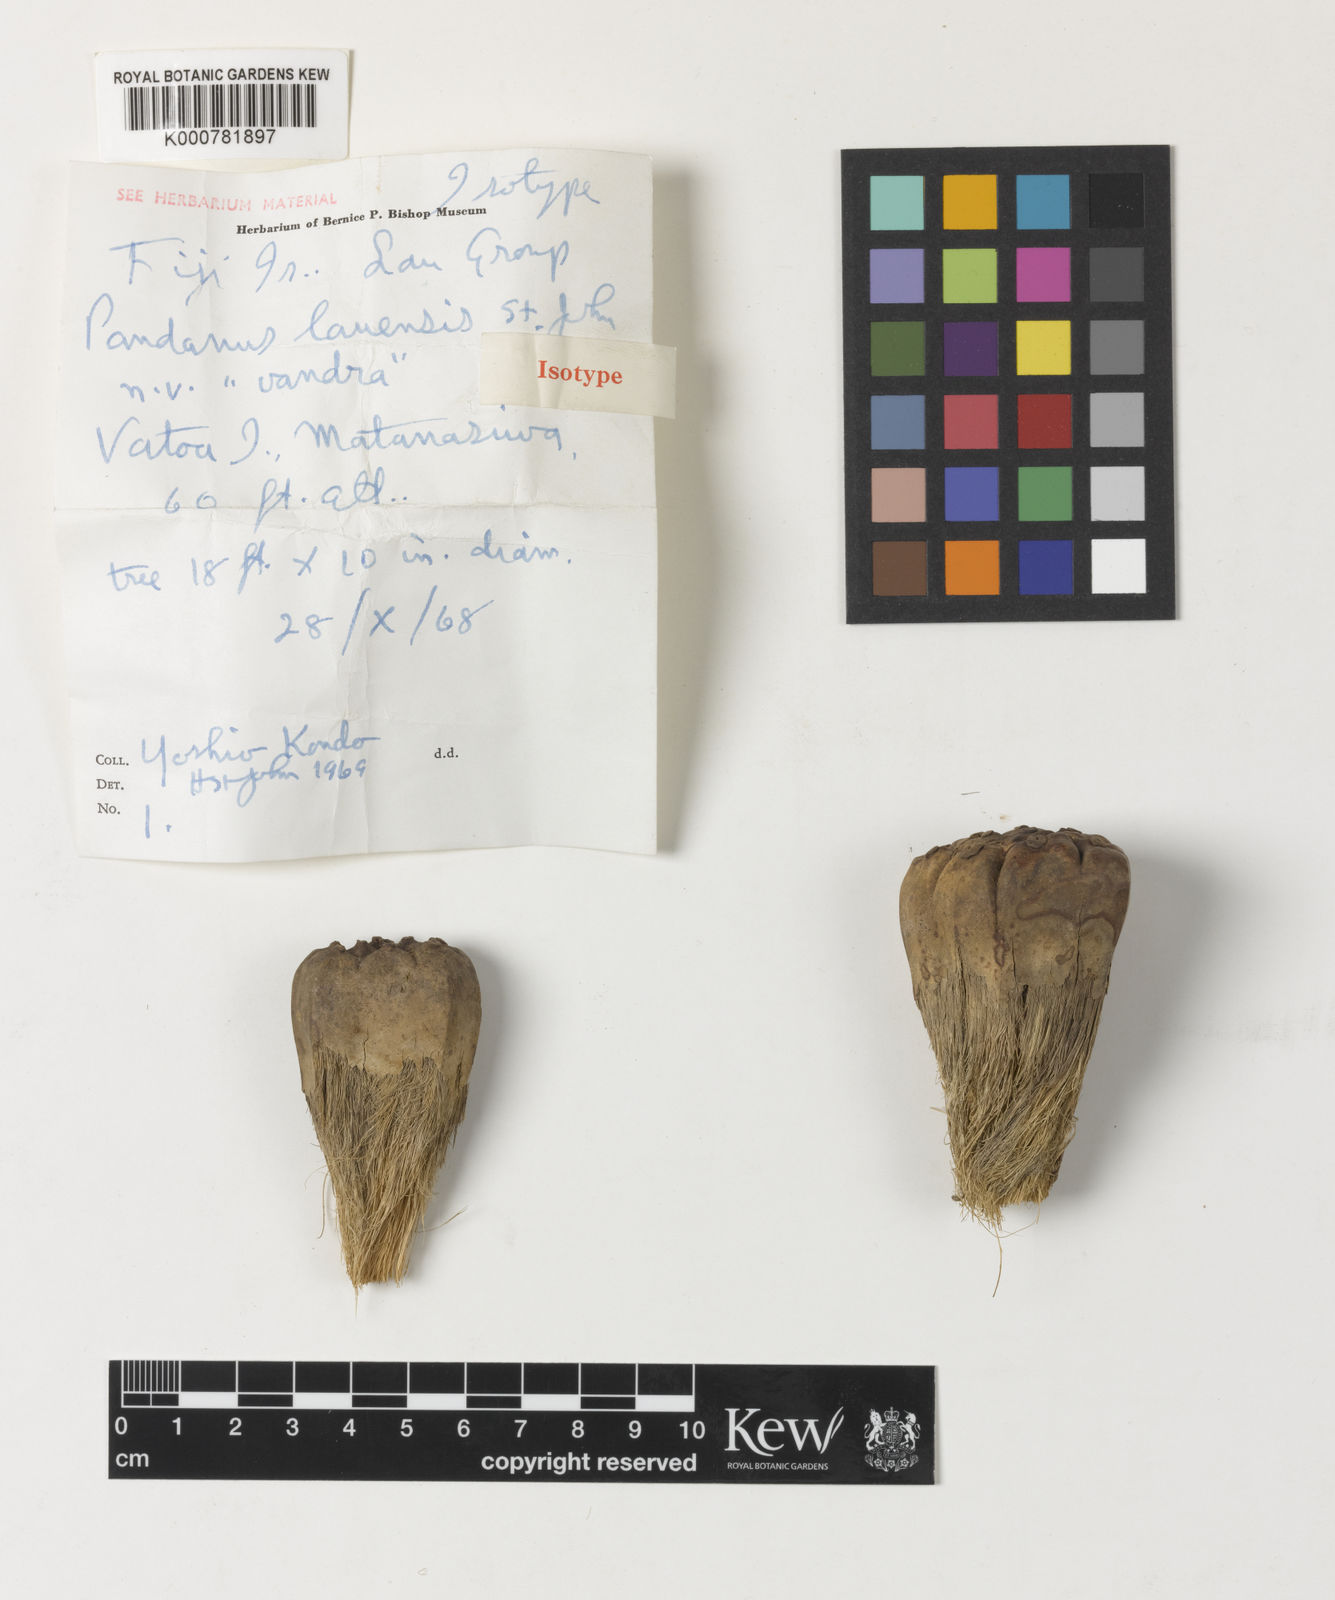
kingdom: Plantae
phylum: Tracheophyta
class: Liliopsida
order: Pandanales
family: Pandanaceae
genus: Pandanus
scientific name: Pandanus
